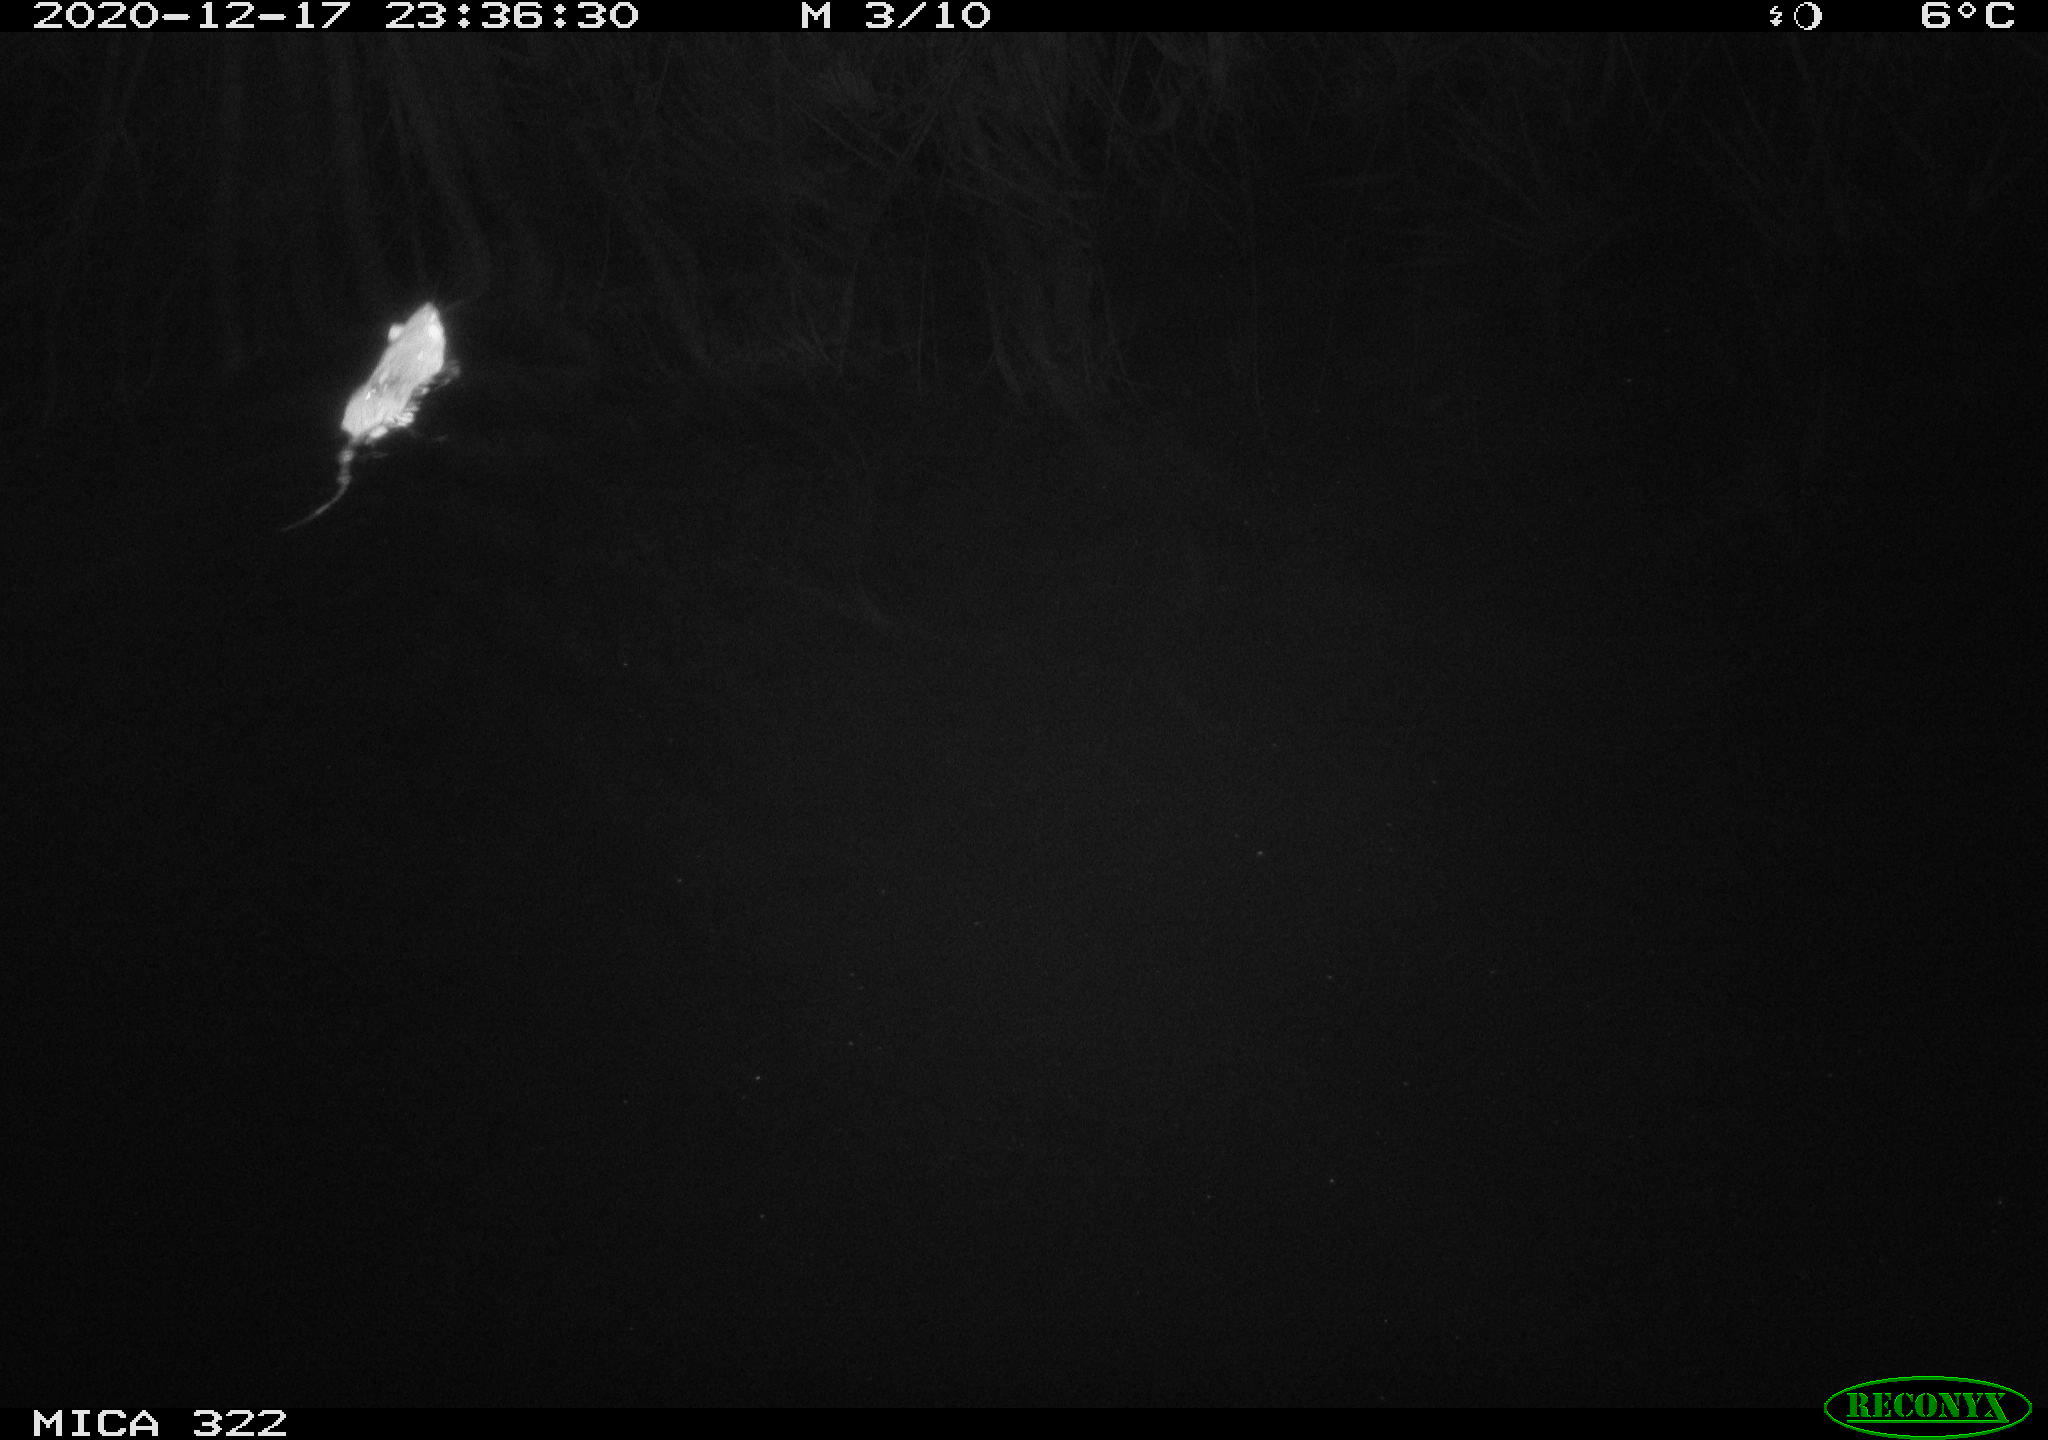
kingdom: Animalia
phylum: Chordata
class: Mammalia
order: Rodentia
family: Muridae
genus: Rattus
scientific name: Rattus norvegicus
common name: Brown rat
